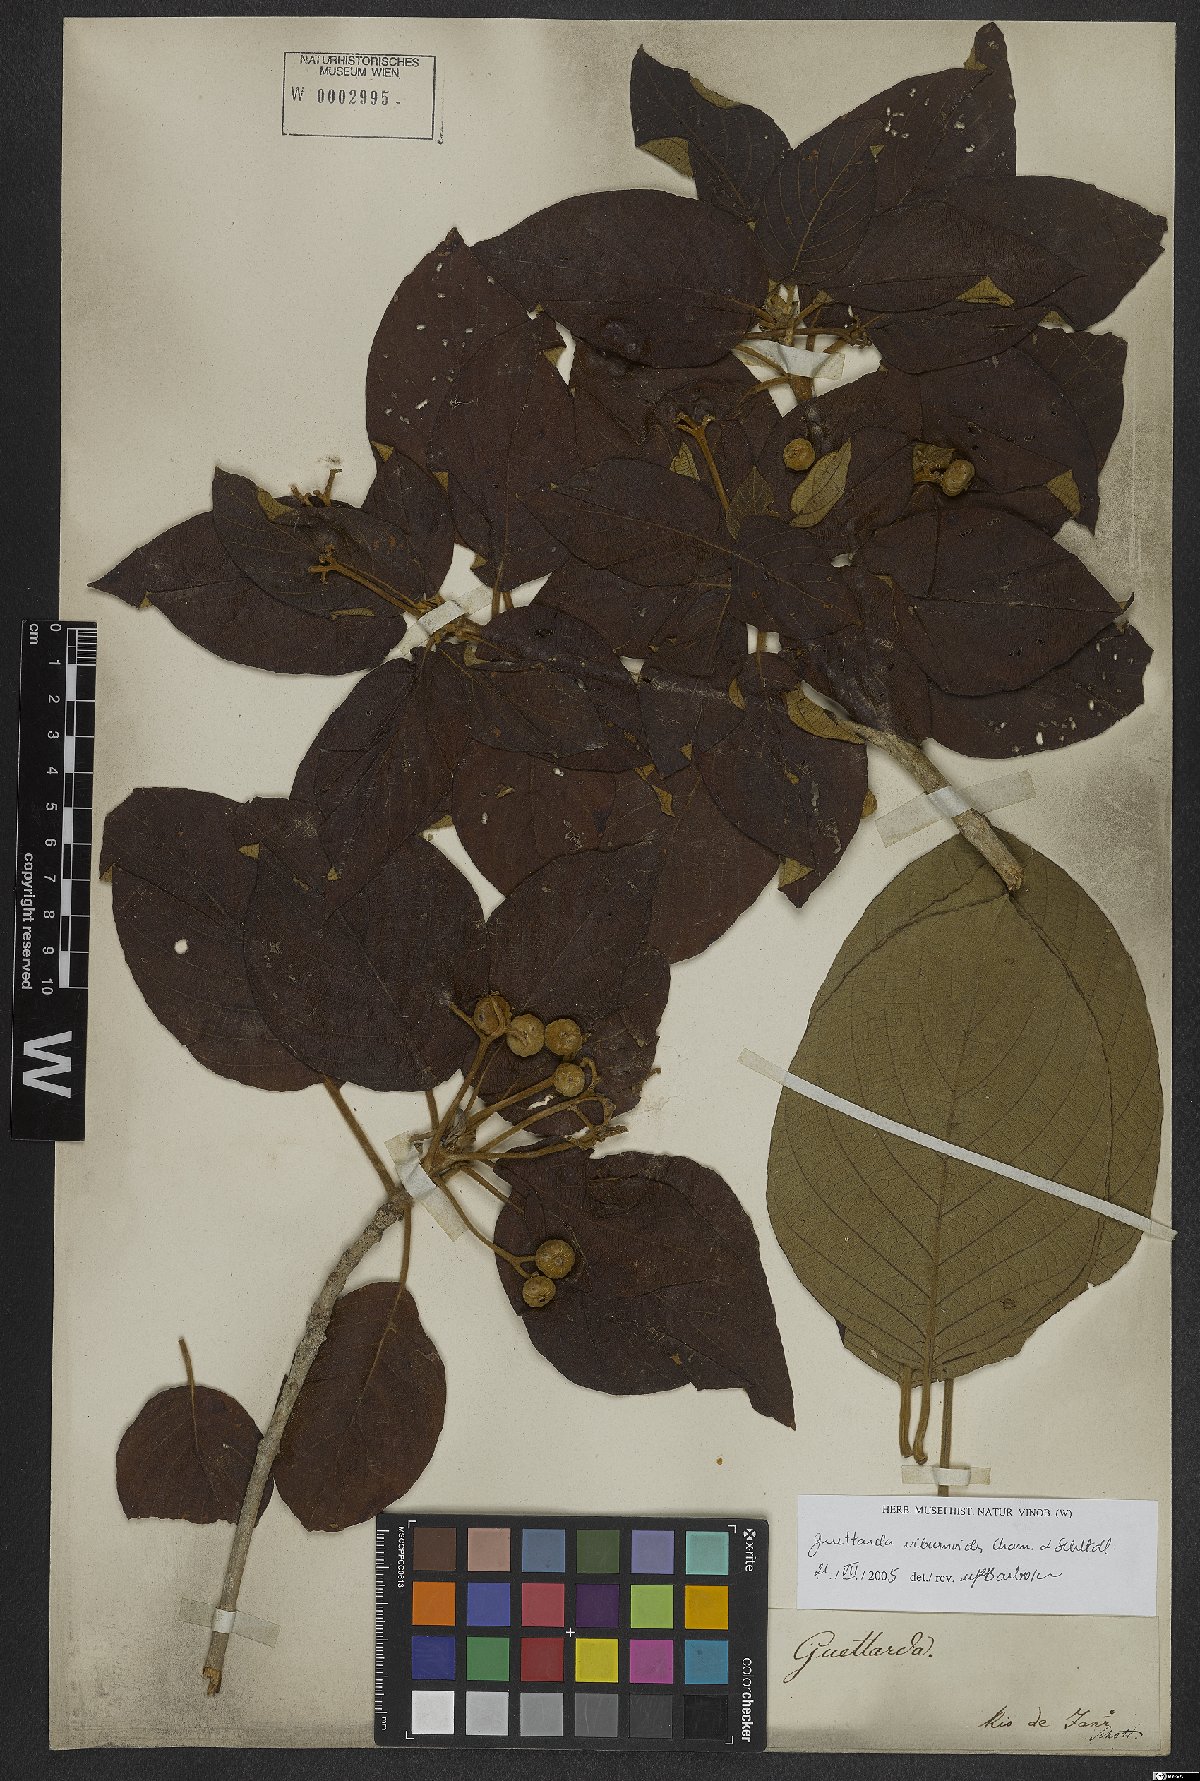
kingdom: Plantae
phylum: Tracheophyta
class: Magnoliopsida
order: Gentianales
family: Rubiaceae
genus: Guettarda
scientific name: Guettarda viburnoides
